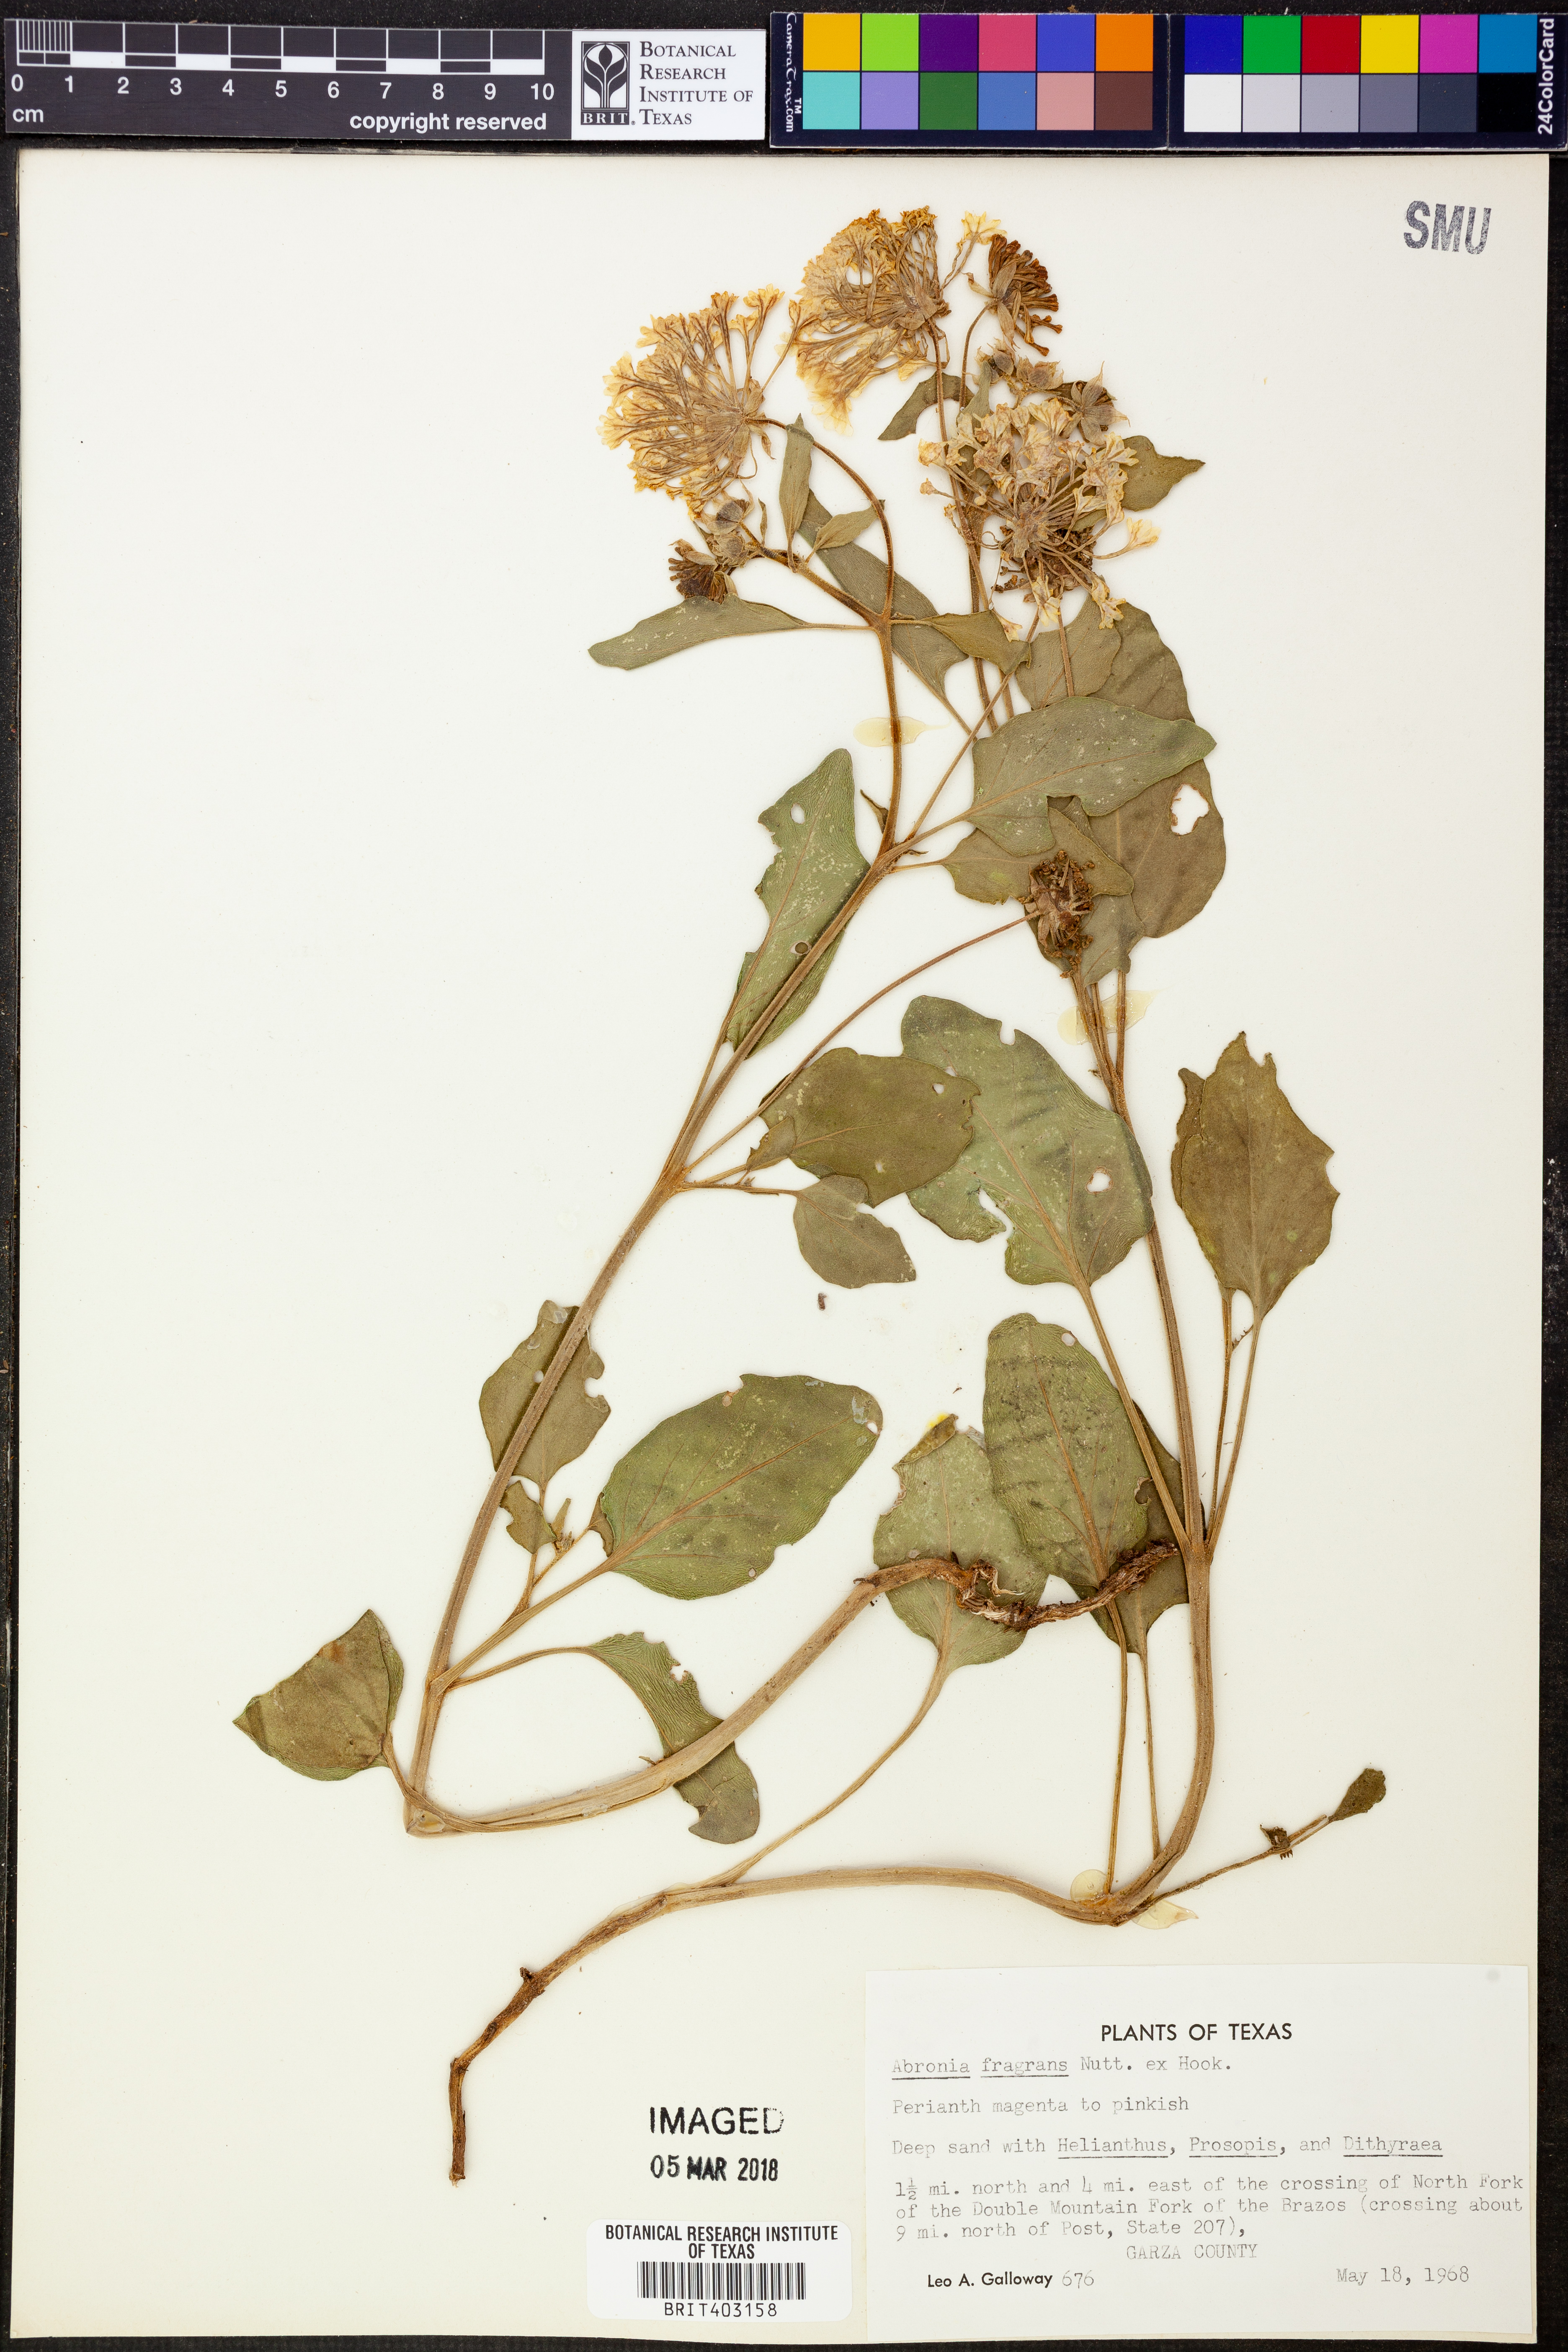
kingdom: Plantae
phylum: Tracheophyta
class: Magnoliopsida
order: Caryophyllales
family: Nyctaginaceae
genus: Abronia
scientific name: Abronia fragrans
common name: Fragrant sand-verbena
